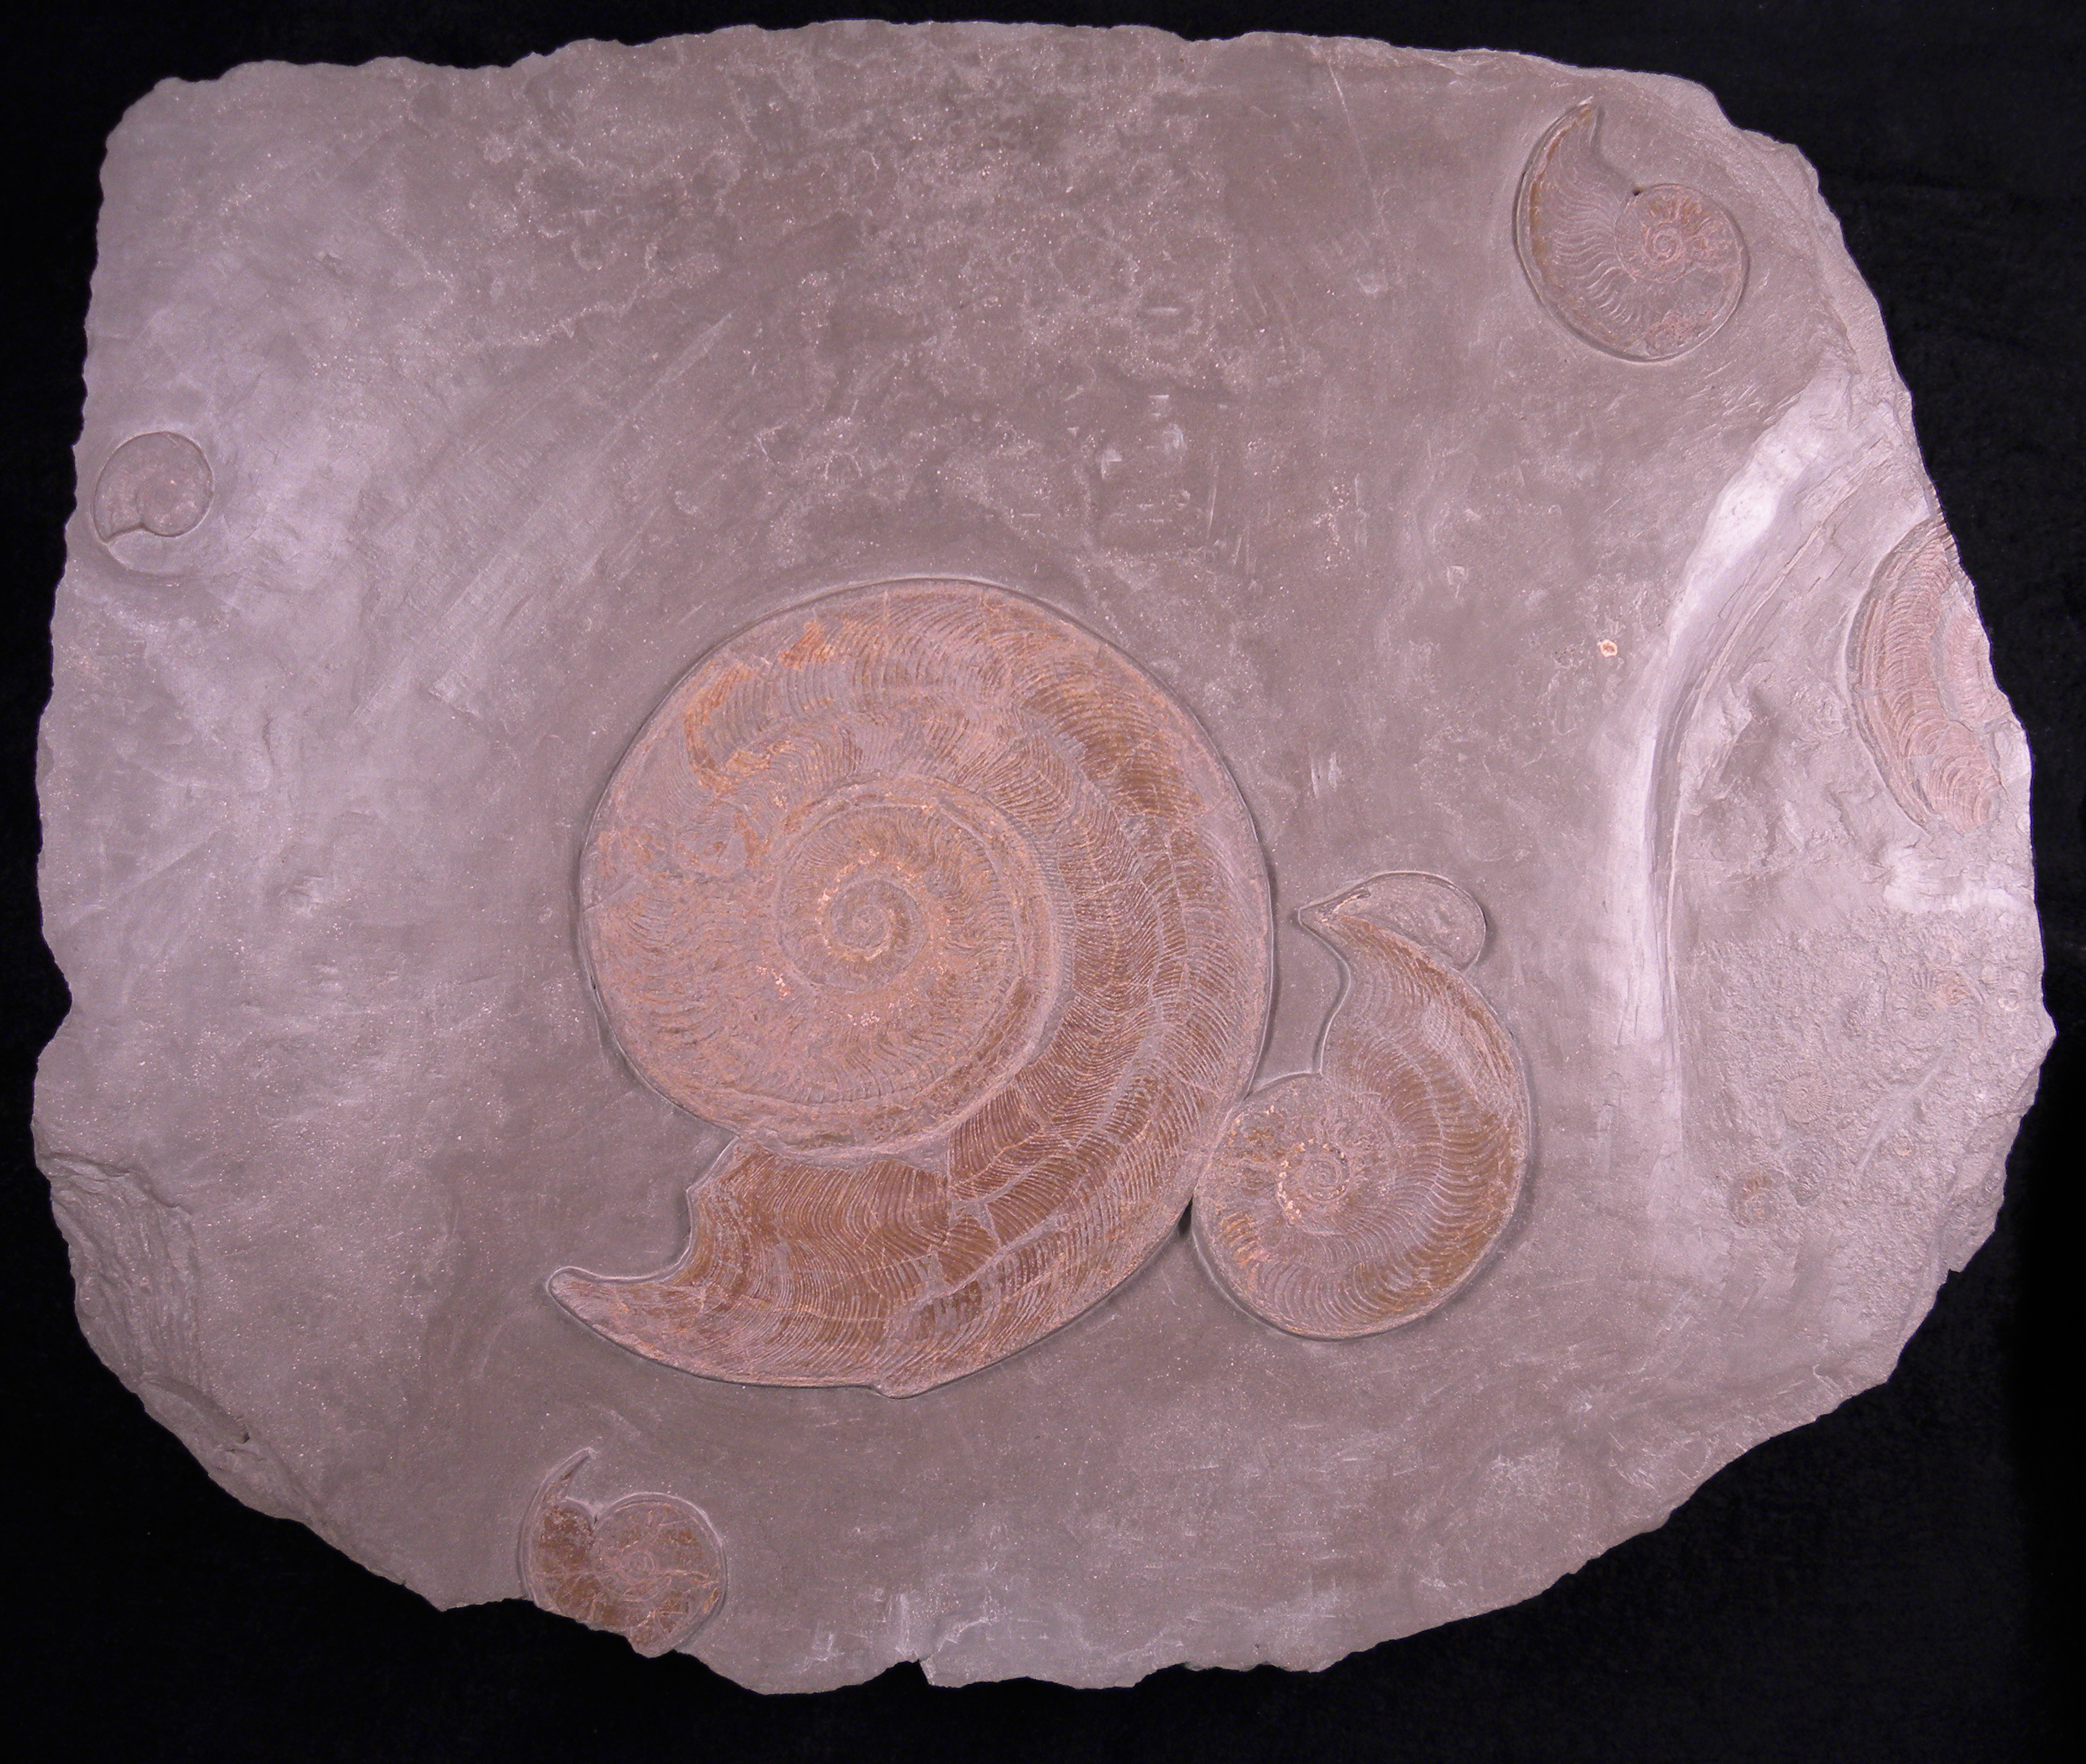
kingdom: Animalia
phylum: Mollusca
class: Cephalopoda
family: Hildoceratidae
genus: Harpoceras
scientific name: Harpoceras falciferum
